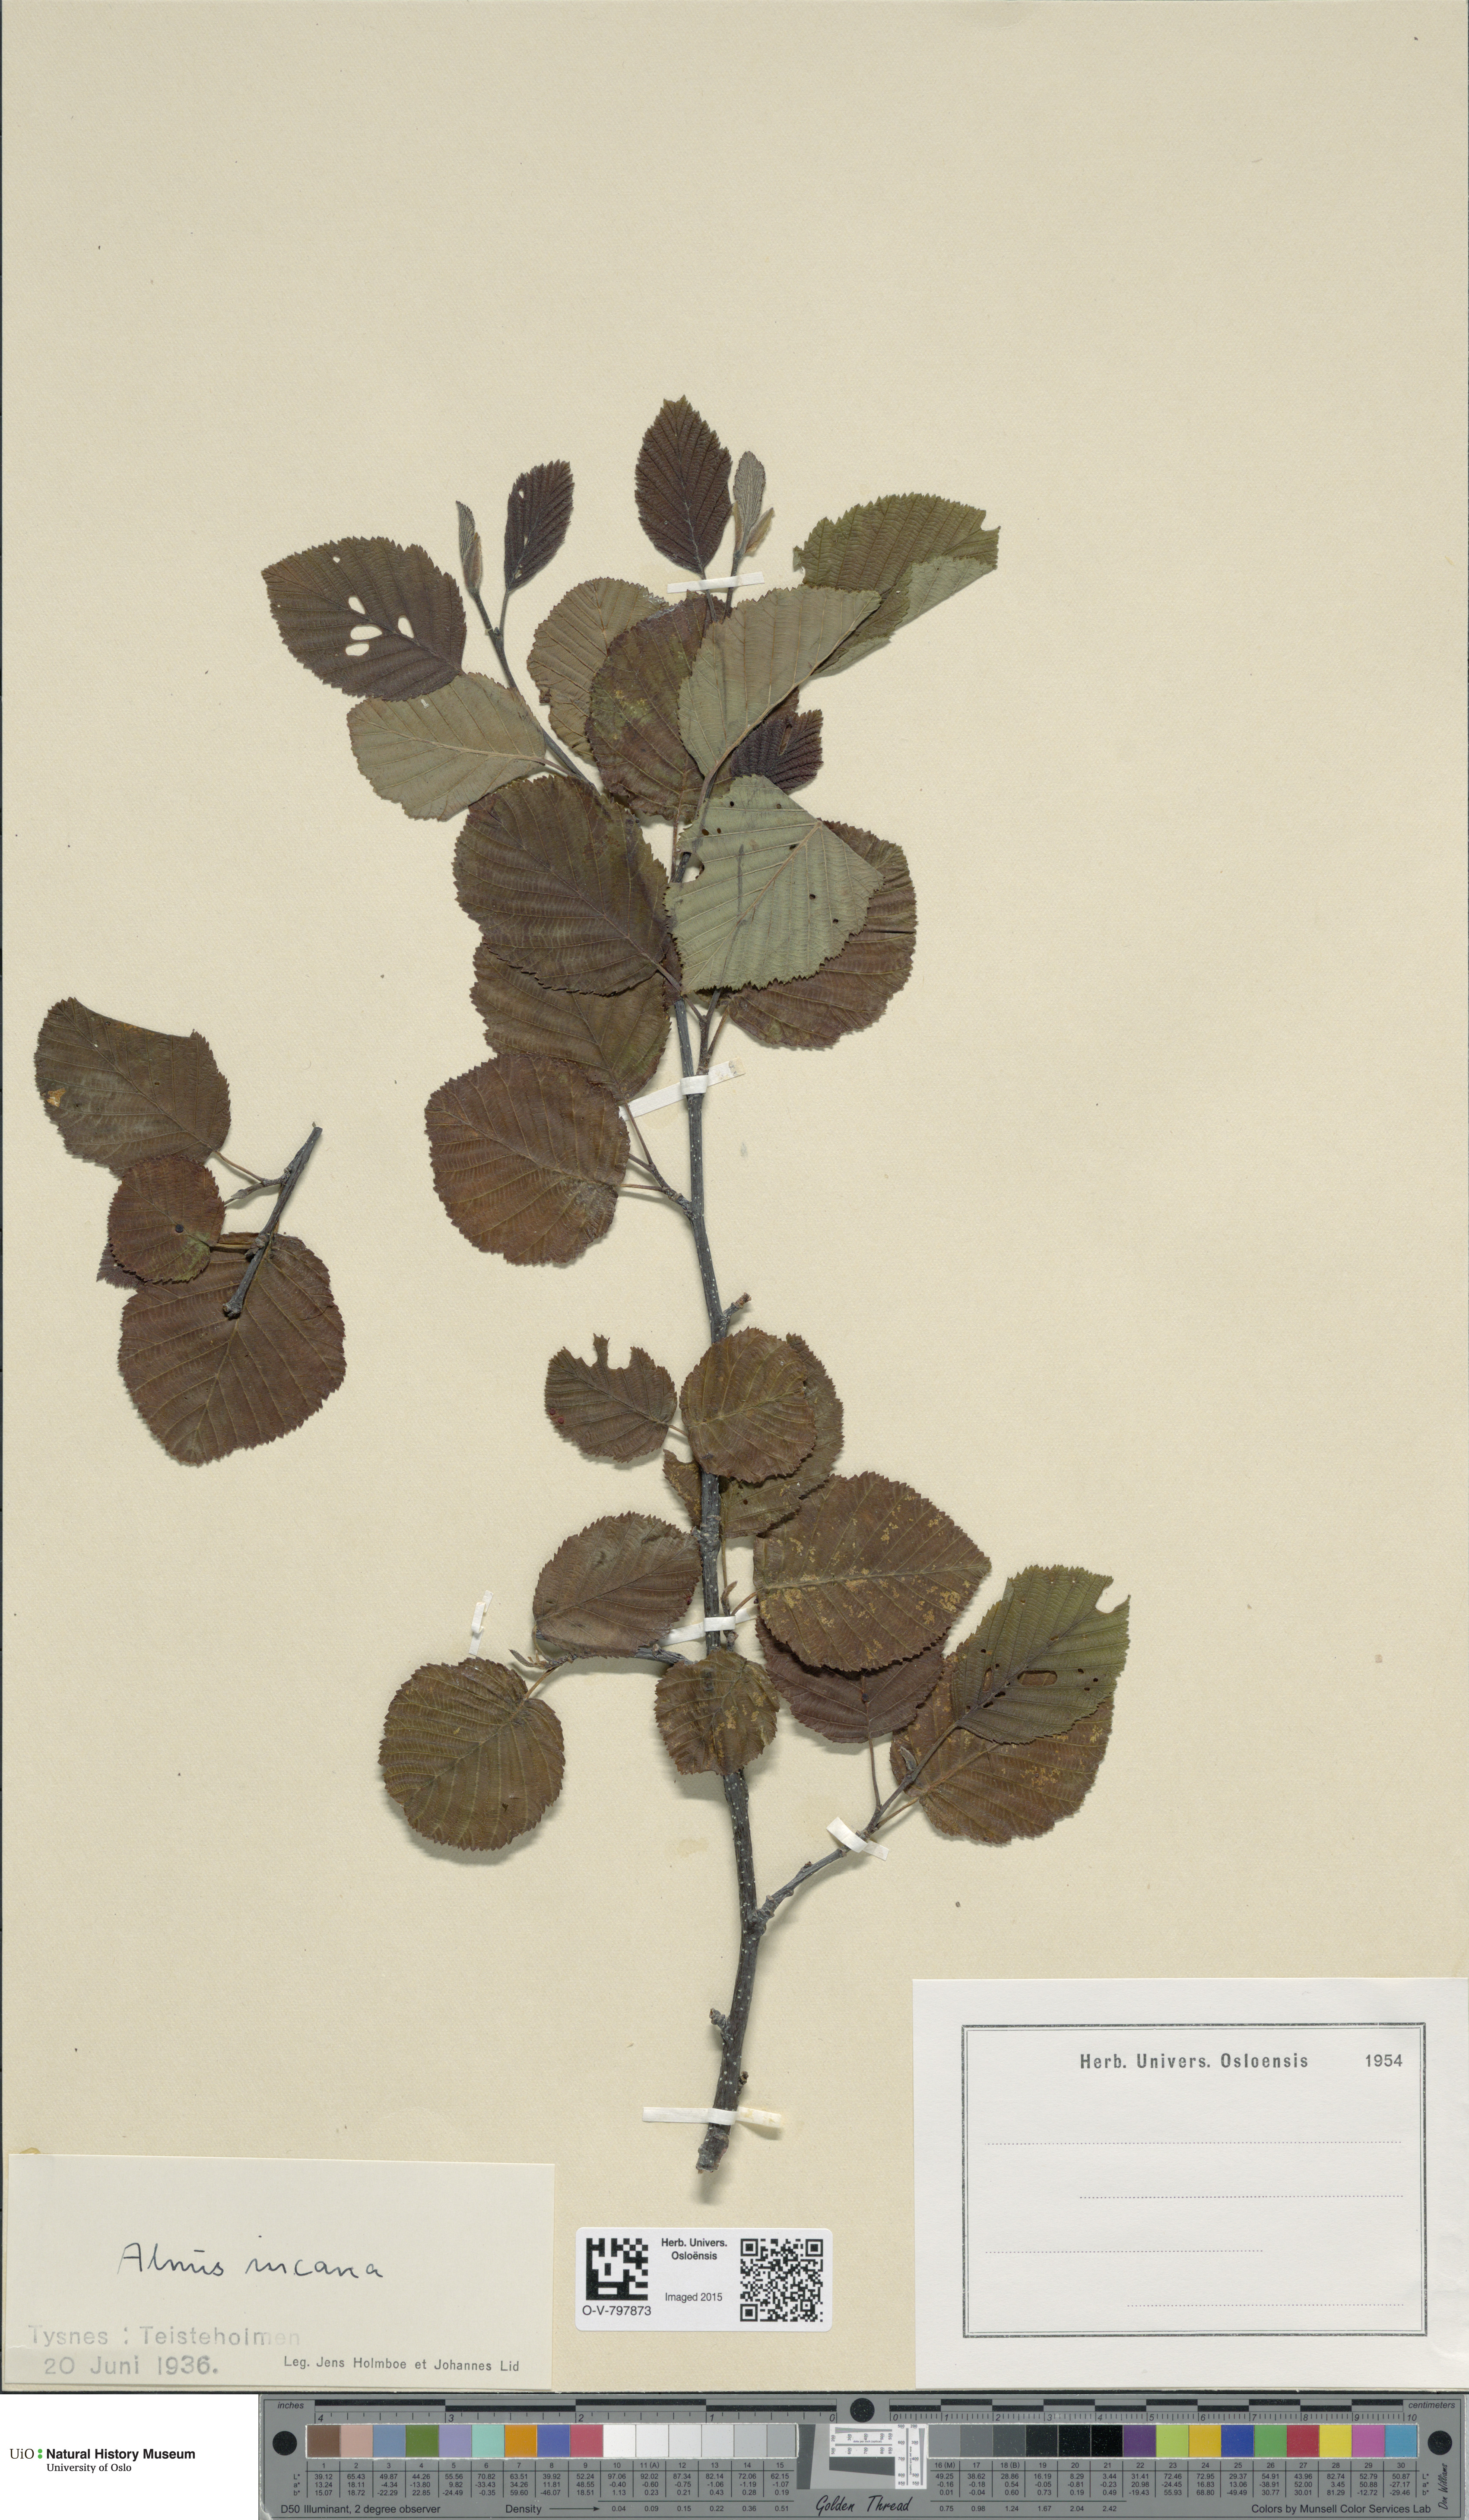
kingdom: Plantae
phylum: Tracheophyta
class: Magnoliopsida
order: Fagales
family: Betulaceae
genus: Alnus
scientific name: Alnus incana
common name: Grey alder
